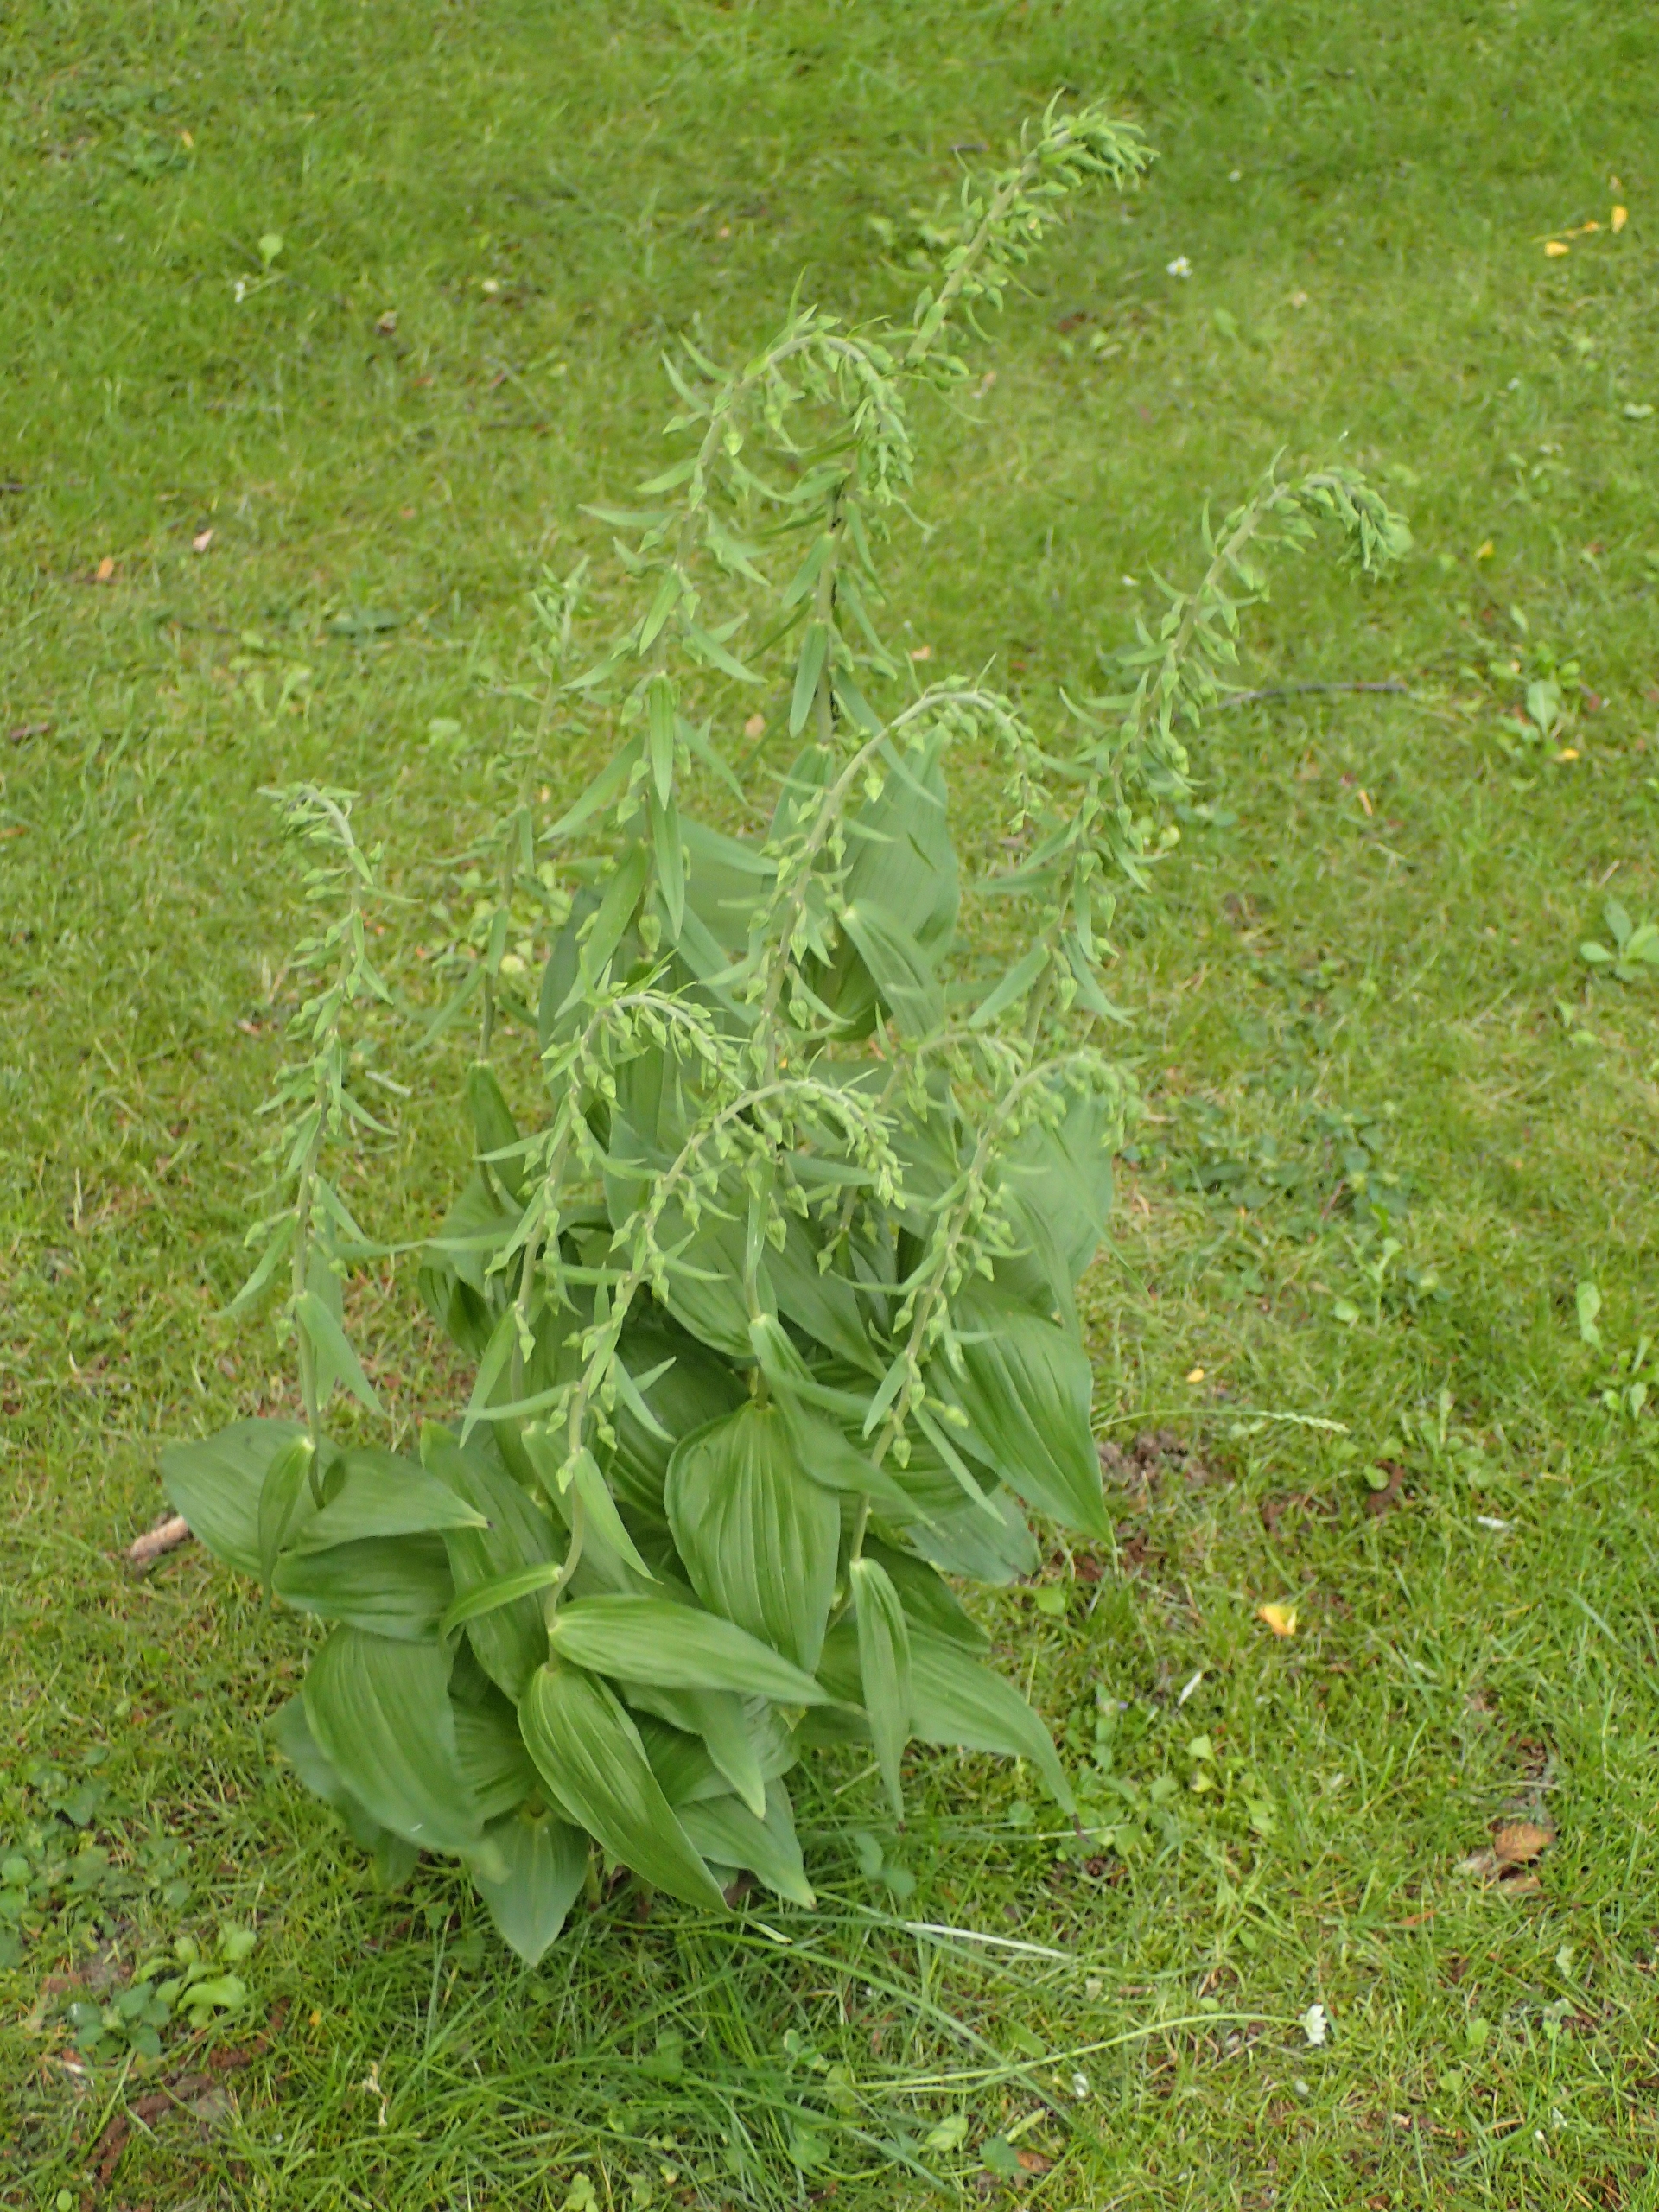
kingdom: Plantae
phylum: Tracheophyta
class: Liliopsida
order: Asparagales
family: Orchidaceae
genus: Epipactis
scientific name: Epipactis helleborine
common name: Skov-hullæbe
